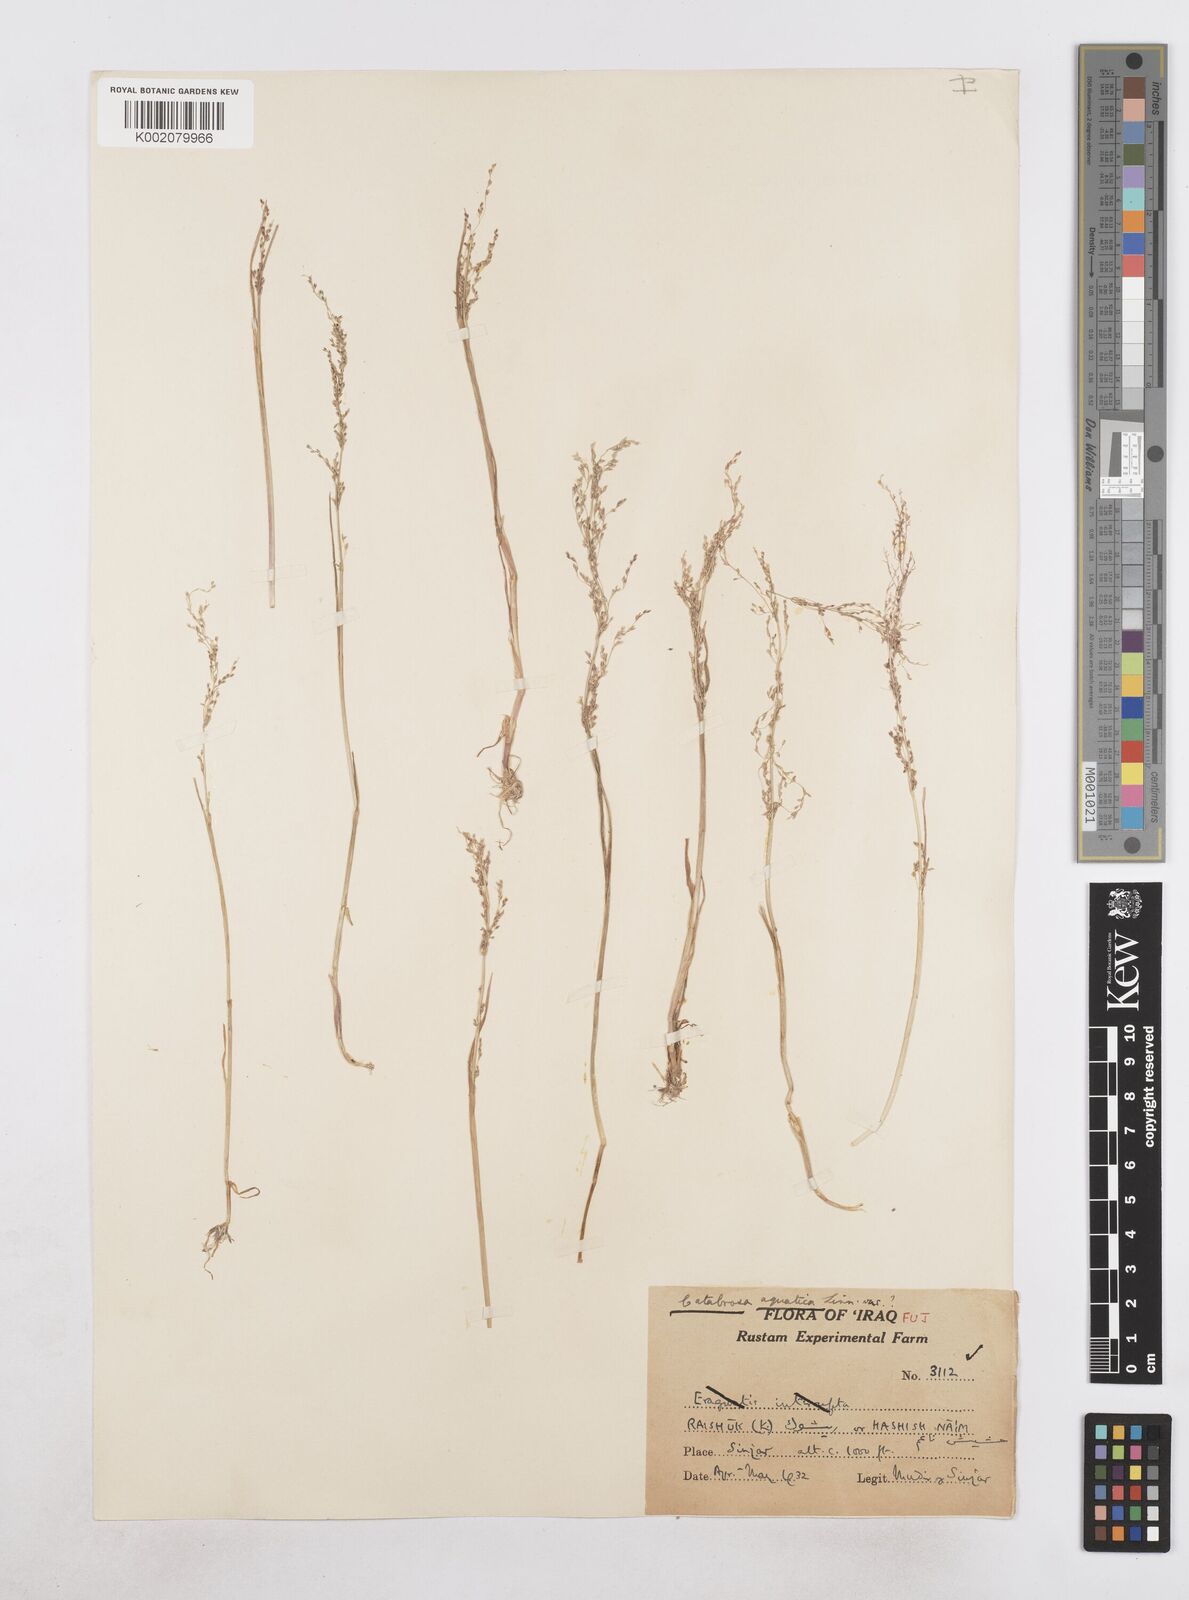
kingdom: Plantae
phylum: Tracheophyta
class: Liliopsida
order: Poales
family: Poaceae
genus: Catabrosa
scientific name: Catabrosa aquatica
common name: Whorl-grass
